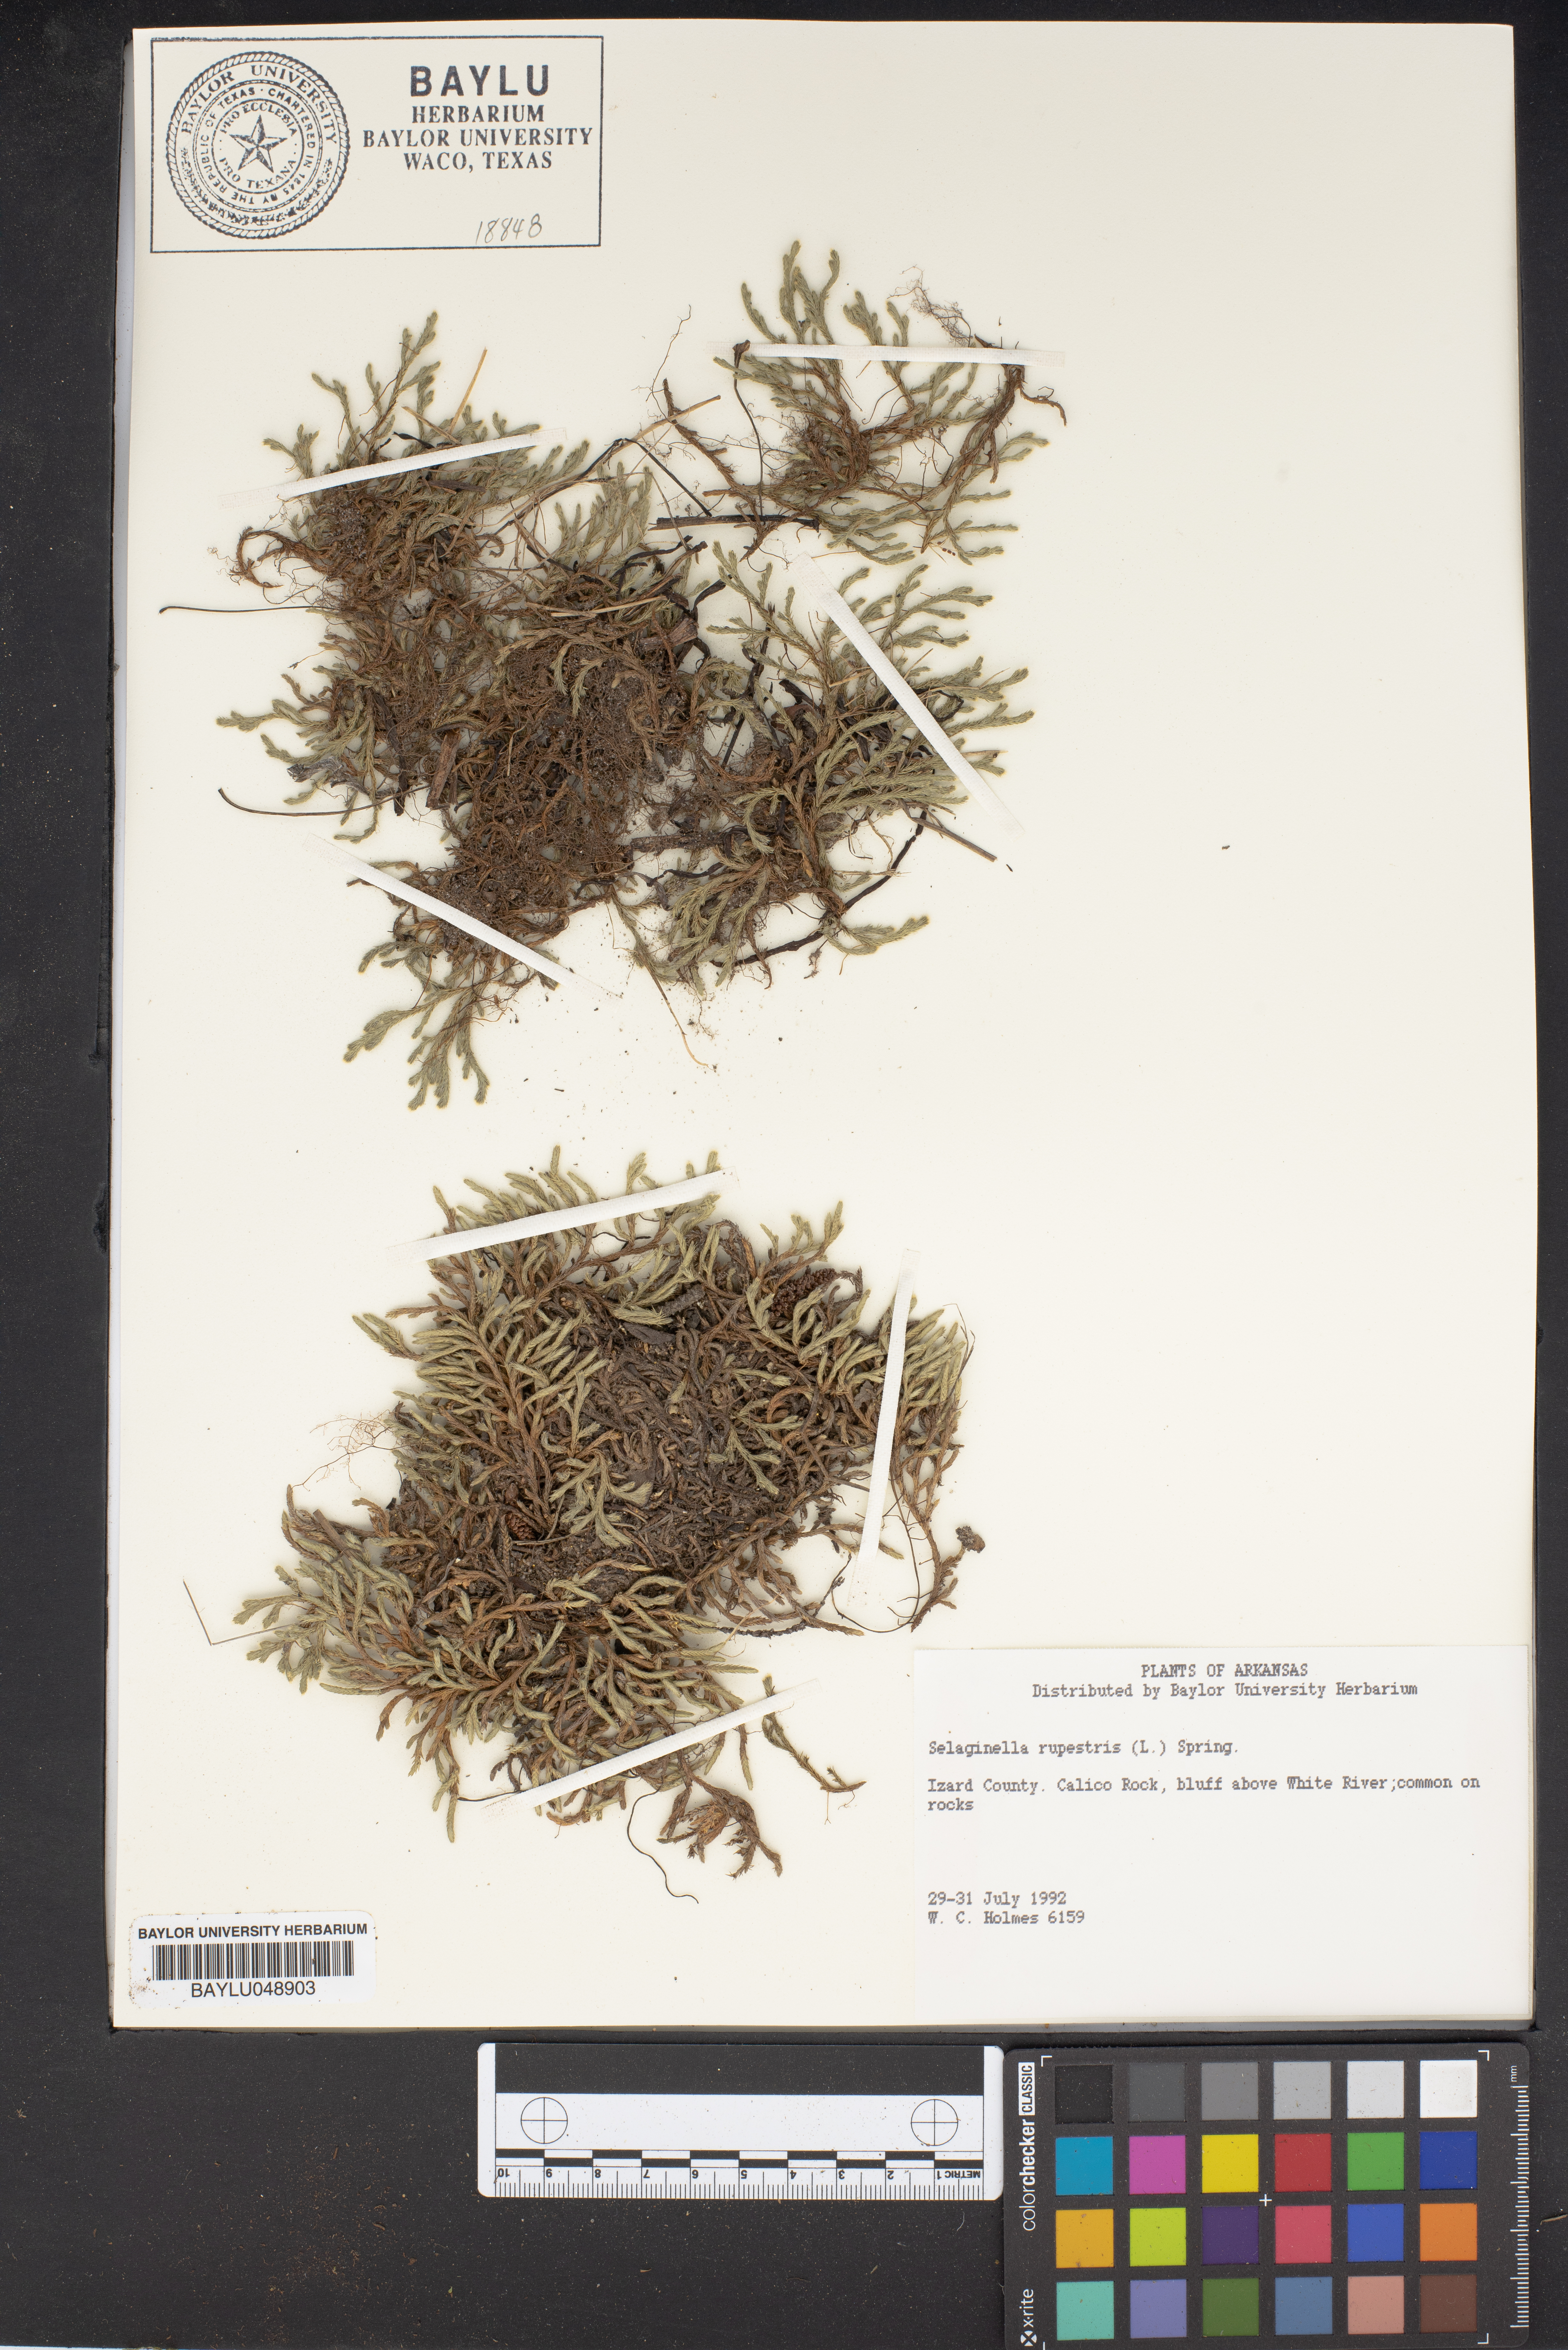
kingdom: Plantae
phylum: Tracheophyta
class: Lycopodiopsida
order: Selaginellales
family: Selaginellaceae
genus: Selaginella
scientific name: Selaginella rupestris
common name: Dwarf spikemoss
